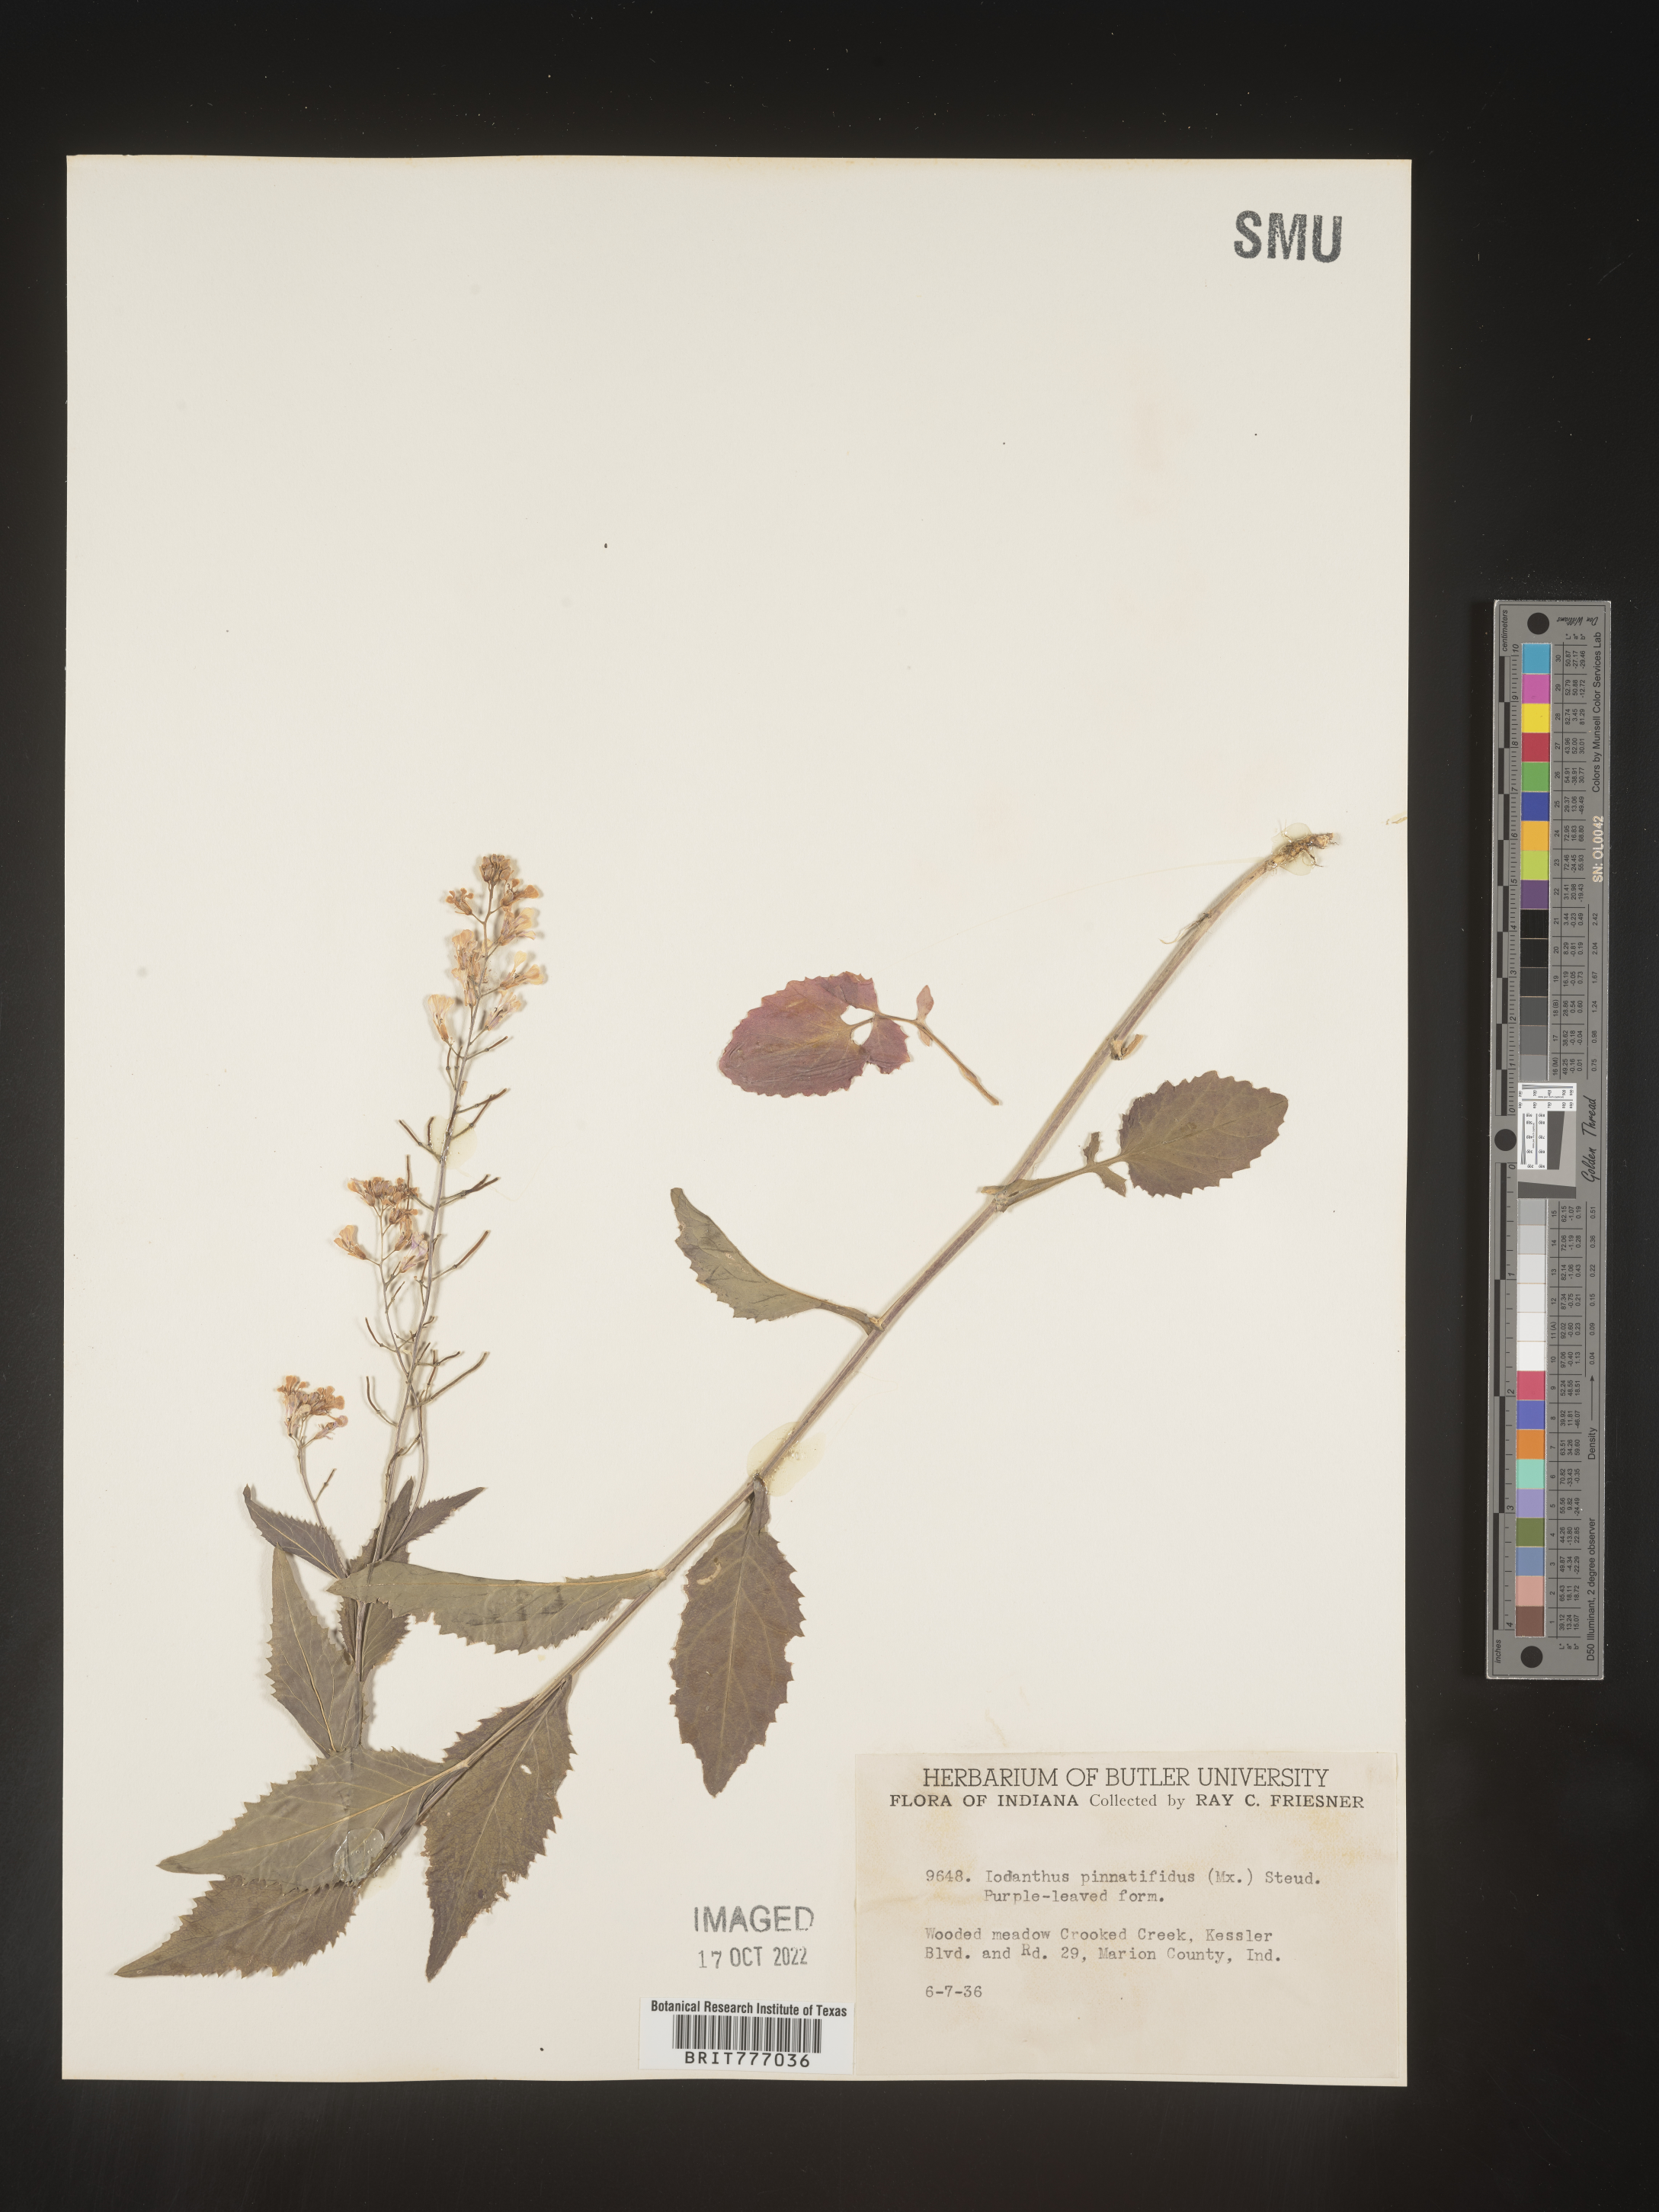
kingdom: Plantae
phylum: Tracheophyta
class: Magnoliopsida
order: Brassicales
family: Brassicaceae
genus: Iodanthus
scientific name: Iodanthus
